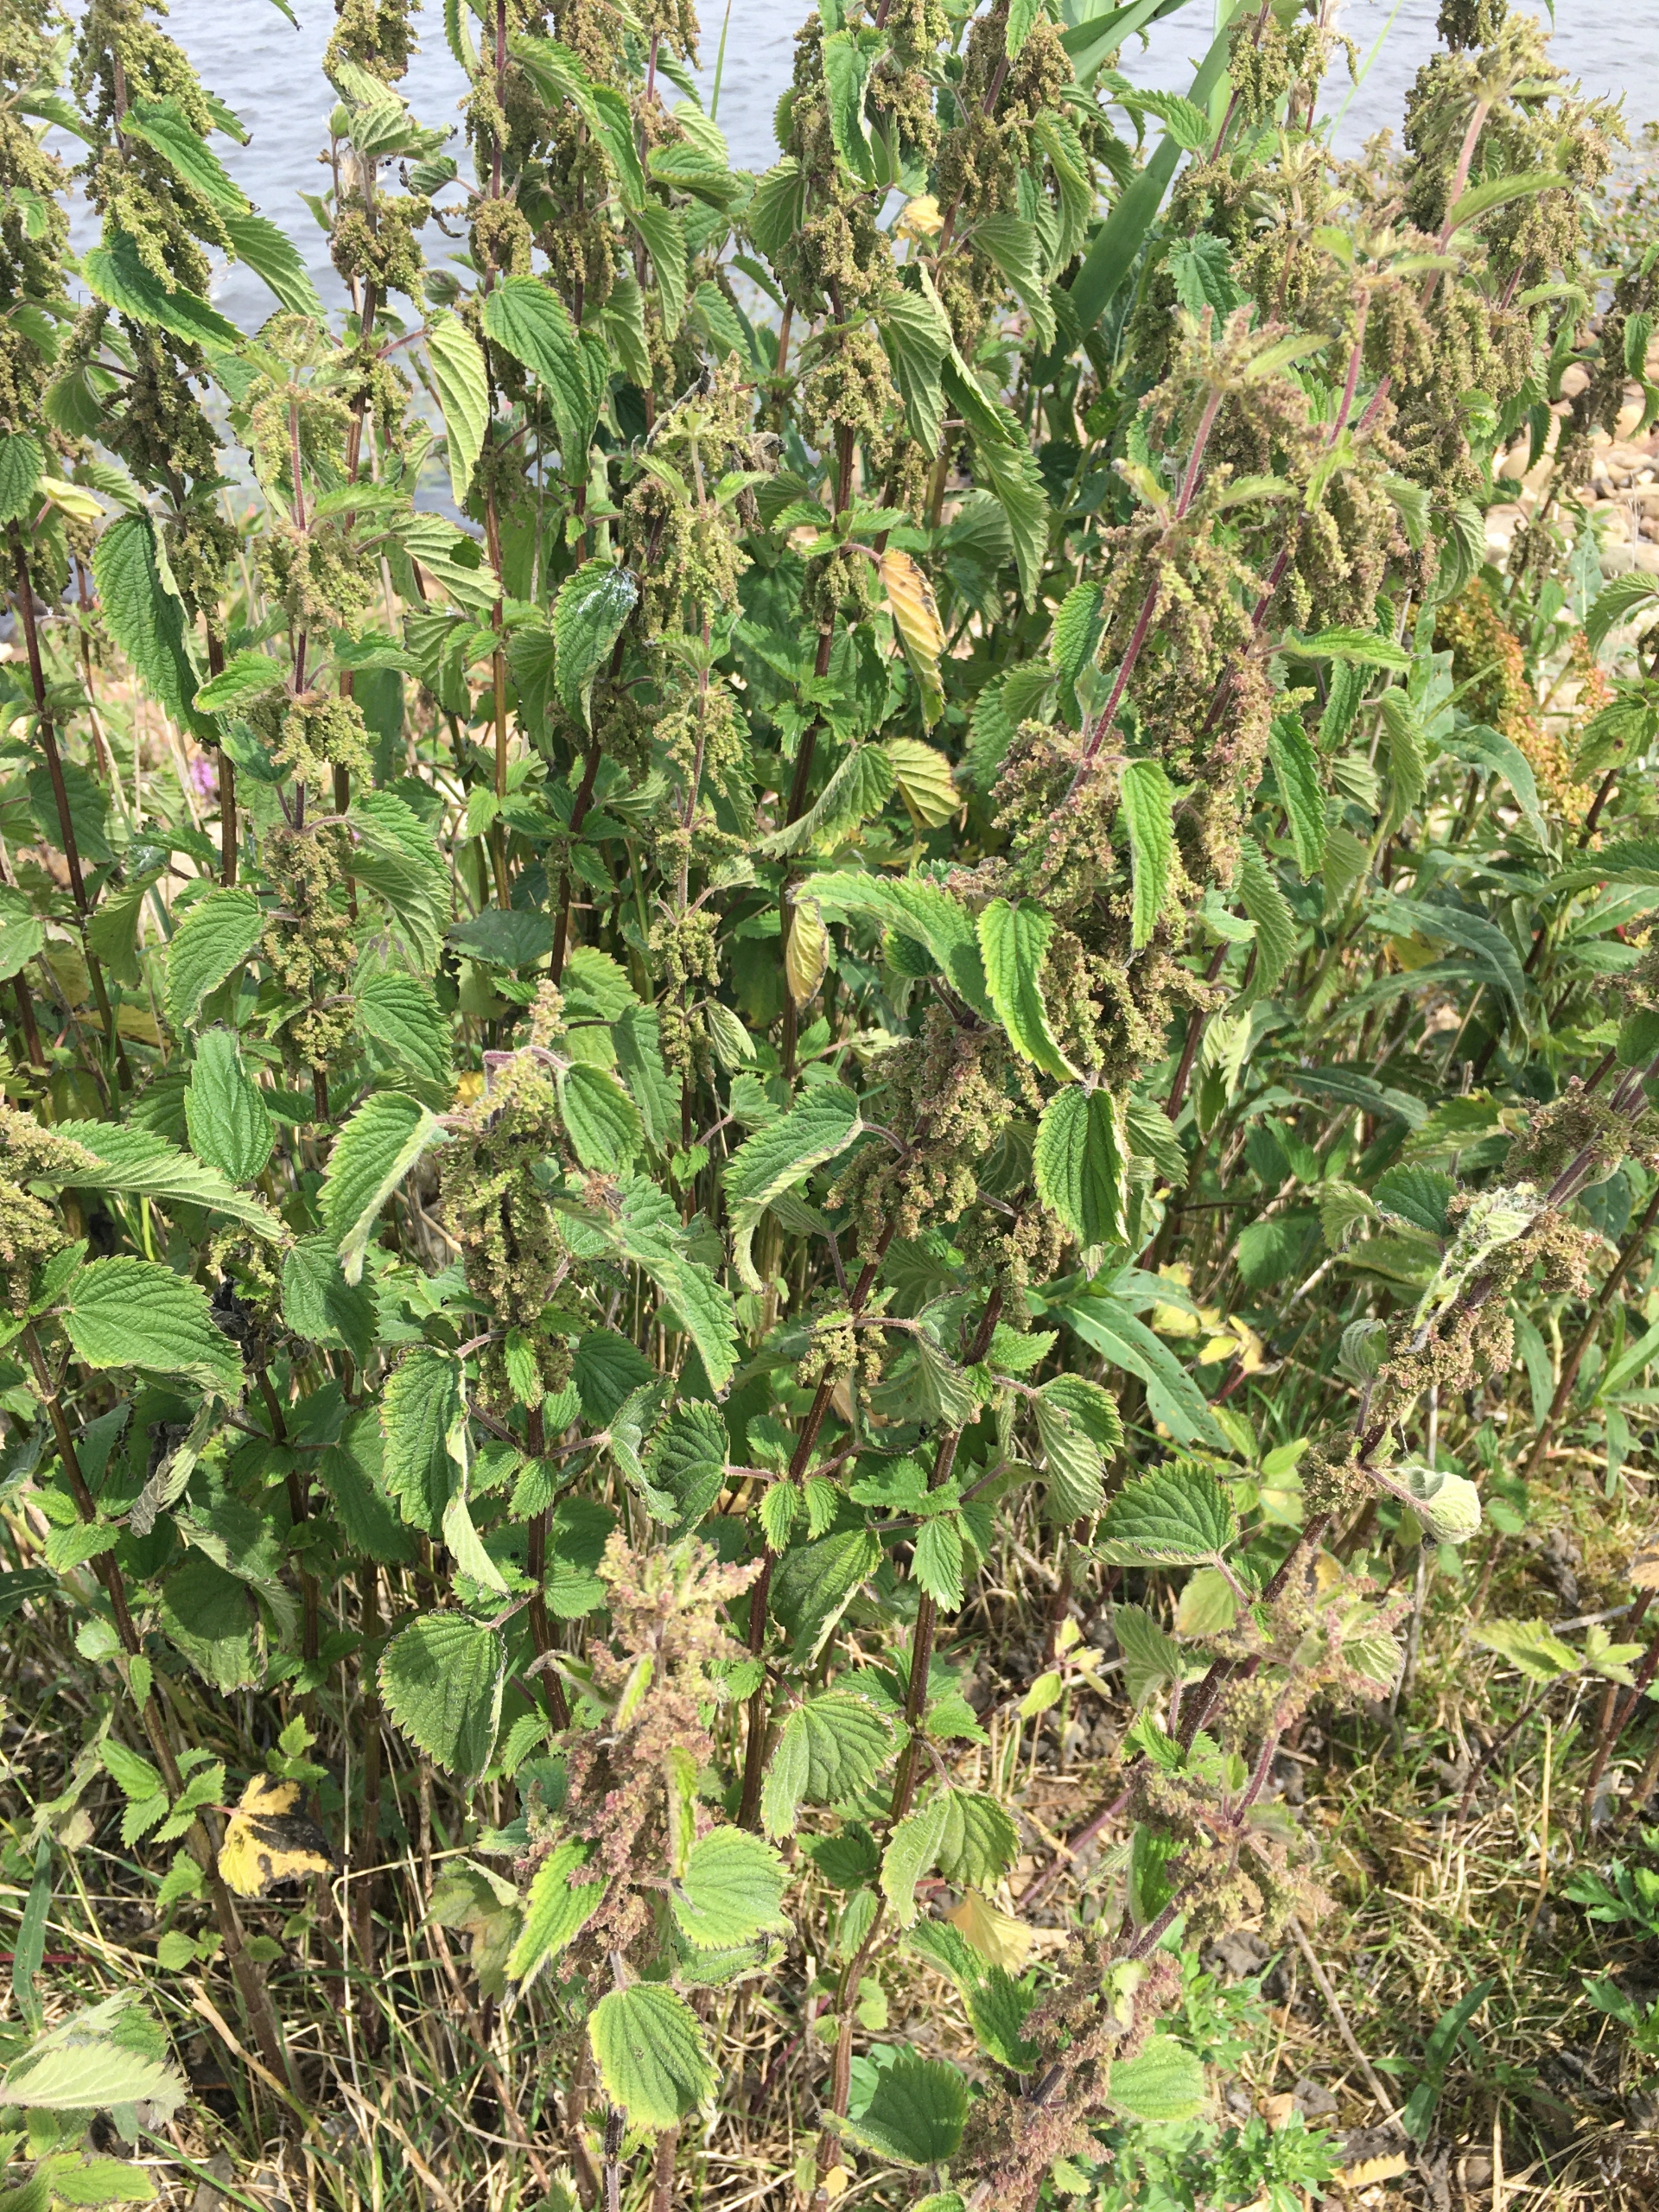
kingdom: Plantae
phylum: Tracheophyta
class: Magnoliopsida
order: Rosales
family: Urticaceae
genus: Urtica
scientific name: Urtica dioica
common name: Stor nælde
